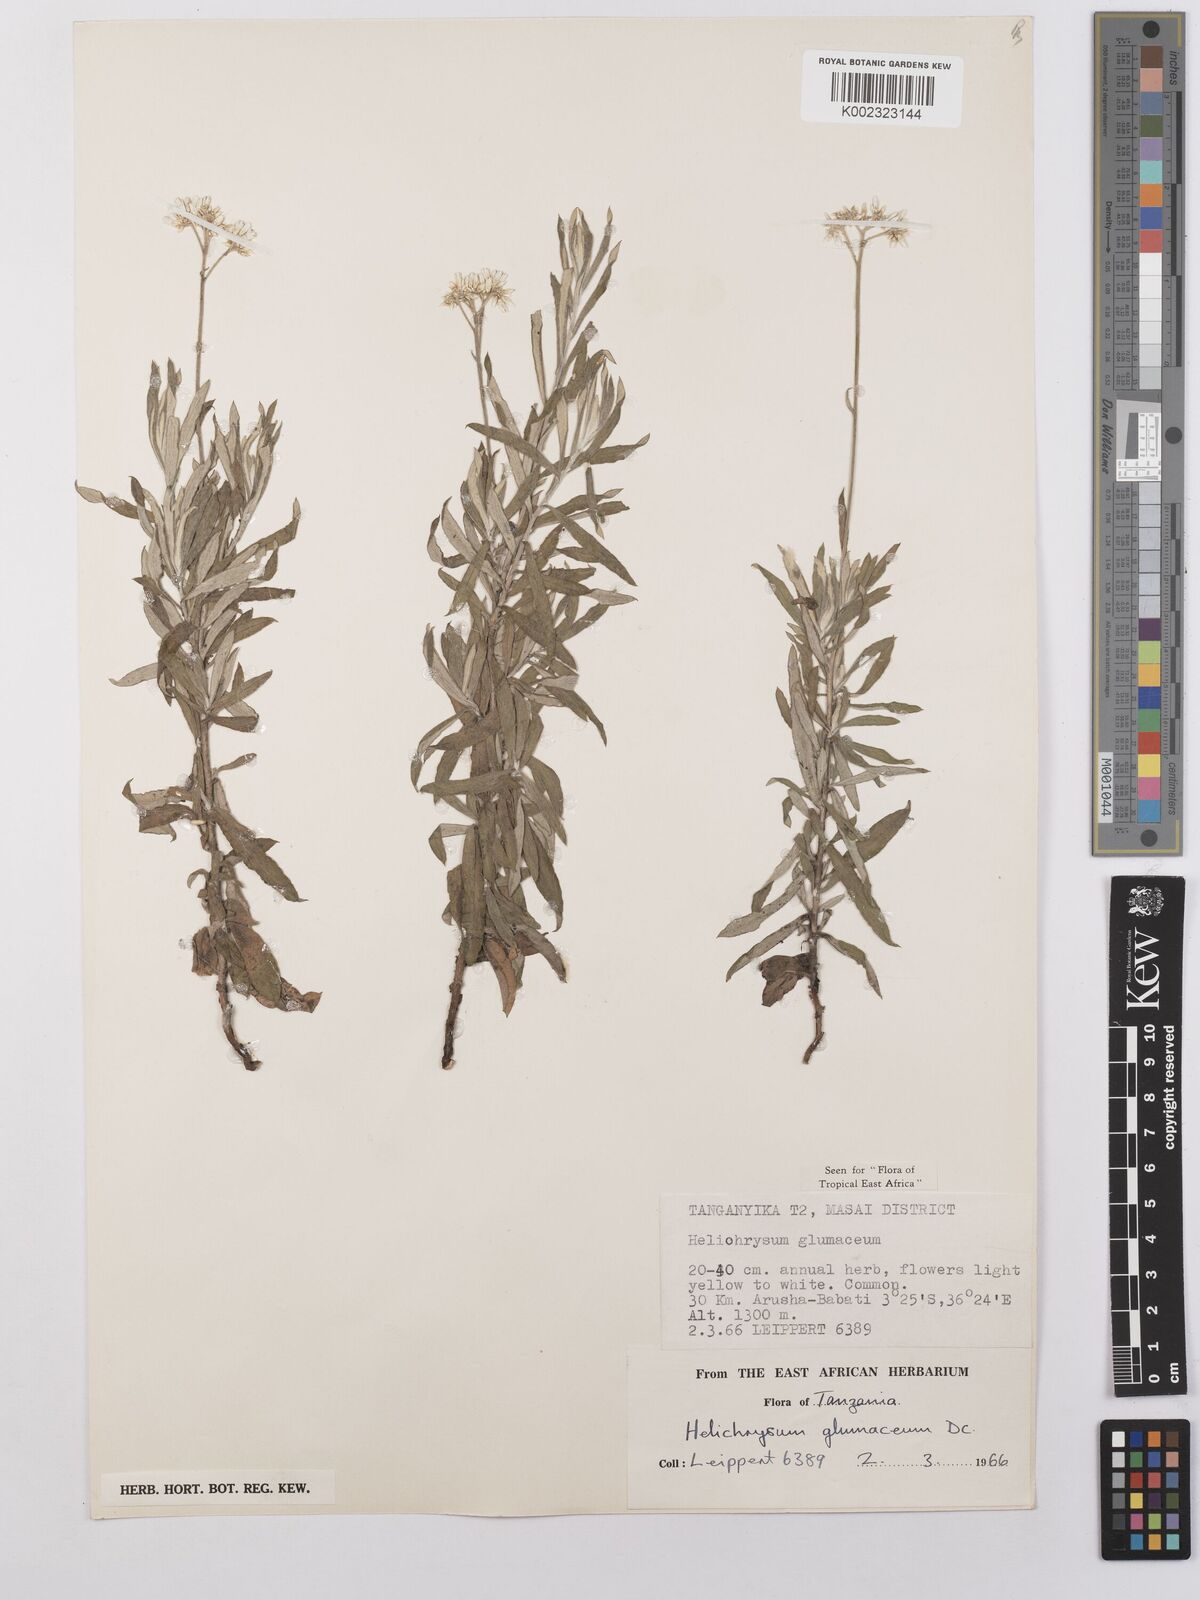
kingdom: Plantae
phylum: Tracheophyta
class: Magnoliopsida
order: Asterales
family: Asteraceae
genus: Helichrysum
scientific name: Helichrysum glumaceum
